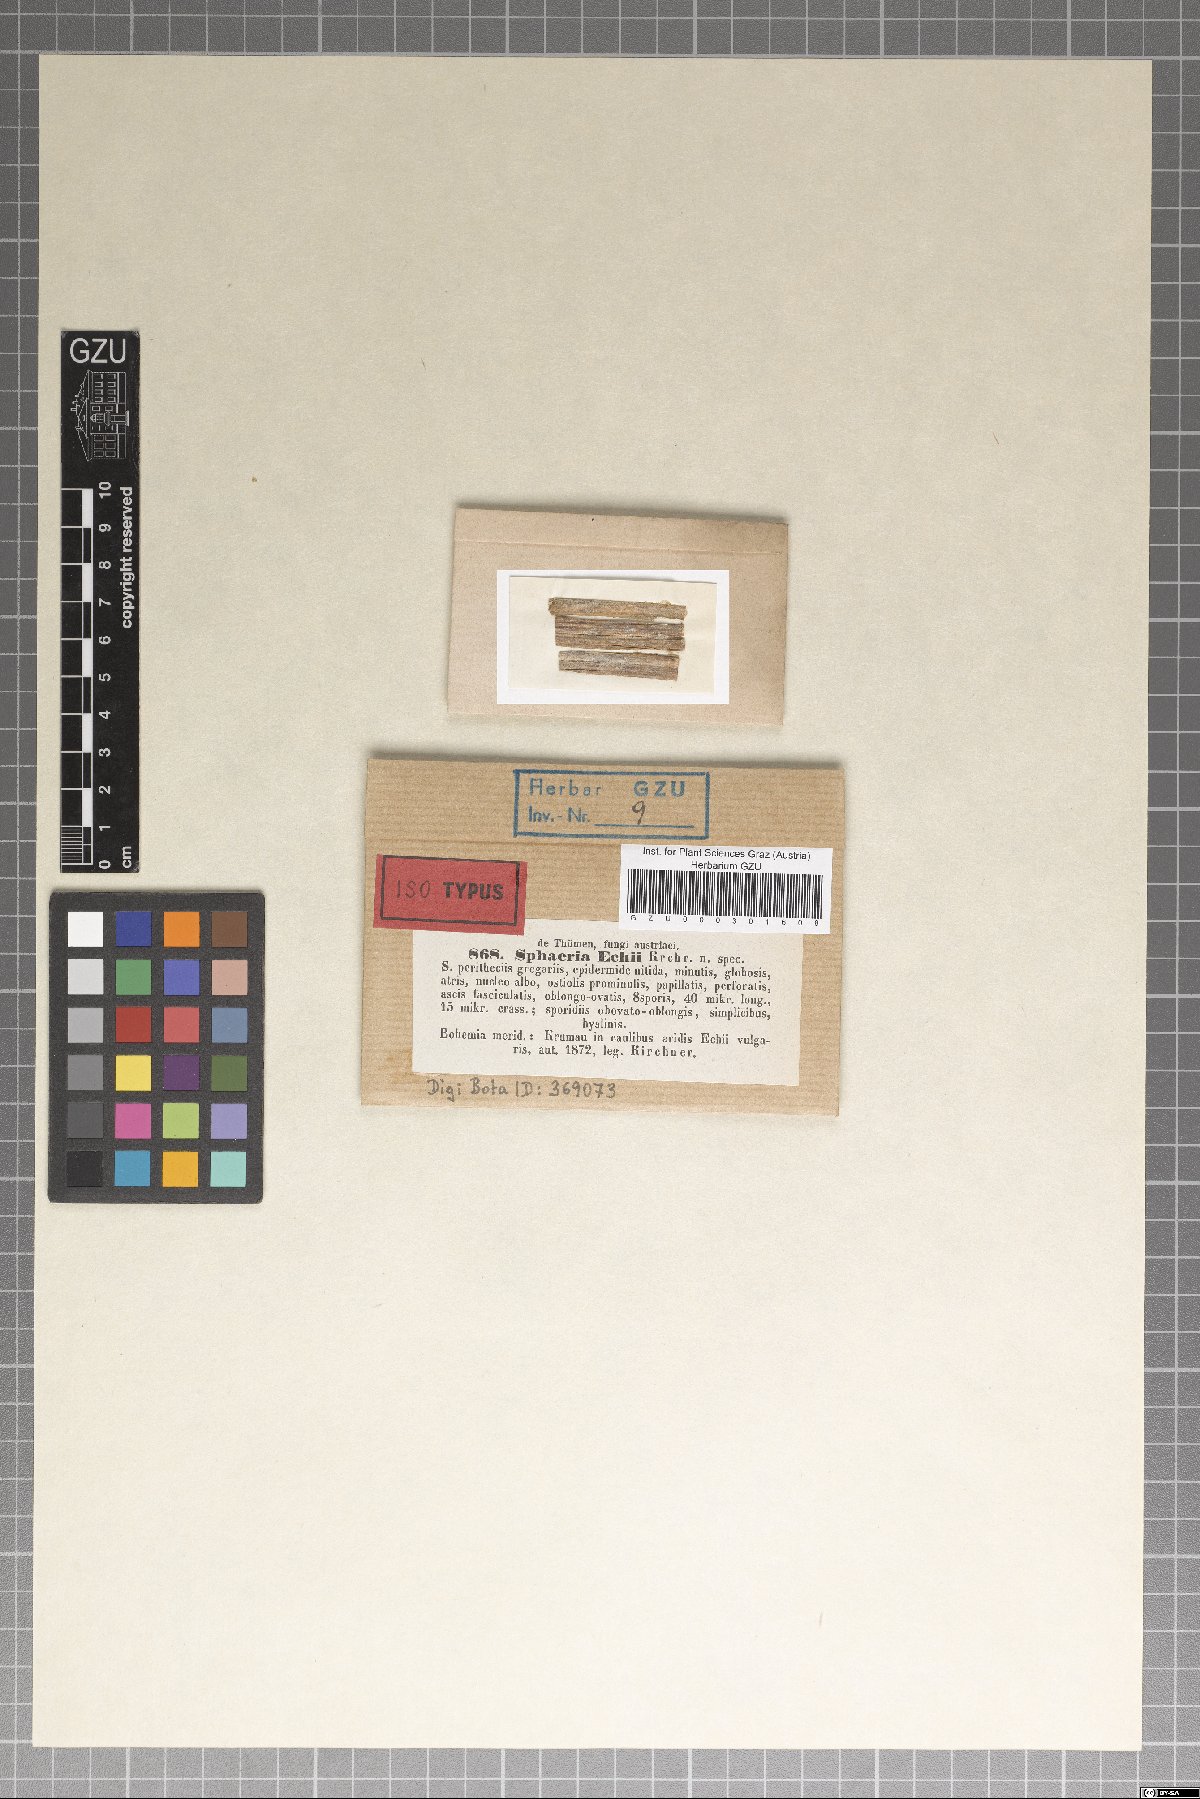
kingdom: Fungi
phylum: Ascomycota
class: Sordariomycetes
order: Xylariales
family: Xylariaceae
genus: Sphaeria
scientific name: Sphaeria
